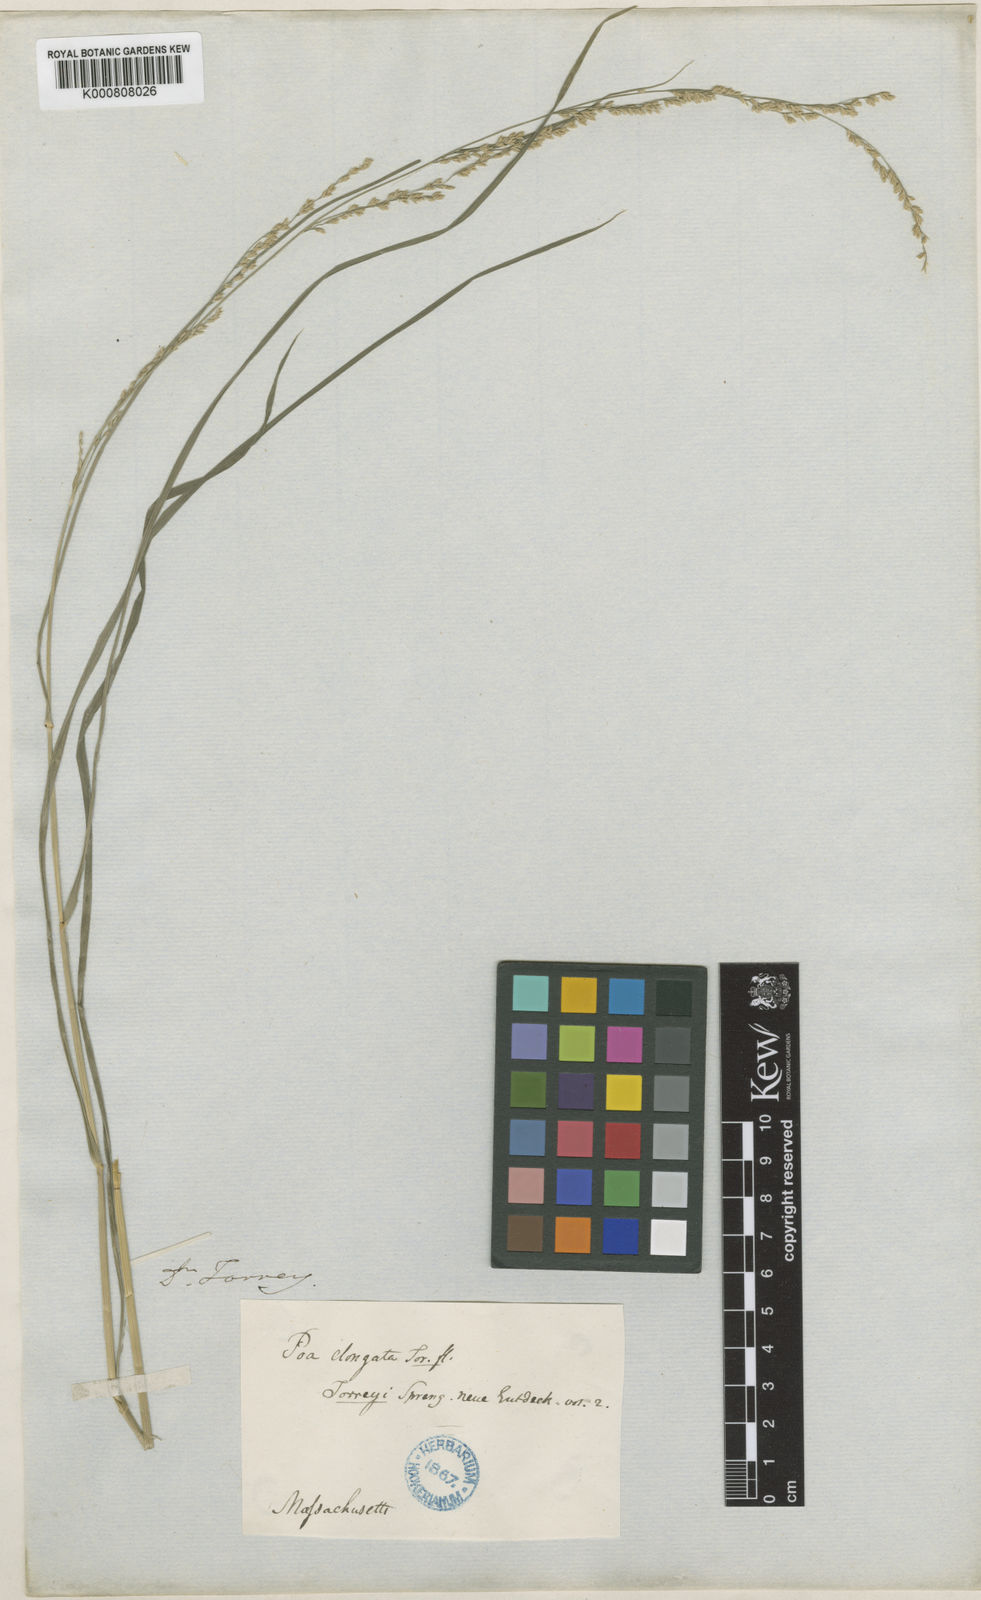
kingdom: Plantae
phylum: Tracheophyta
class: Liliopsida
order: Poales
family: Poaceae
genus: Glyceria
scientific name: Glyceria melicaria
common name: Long mannagrass
